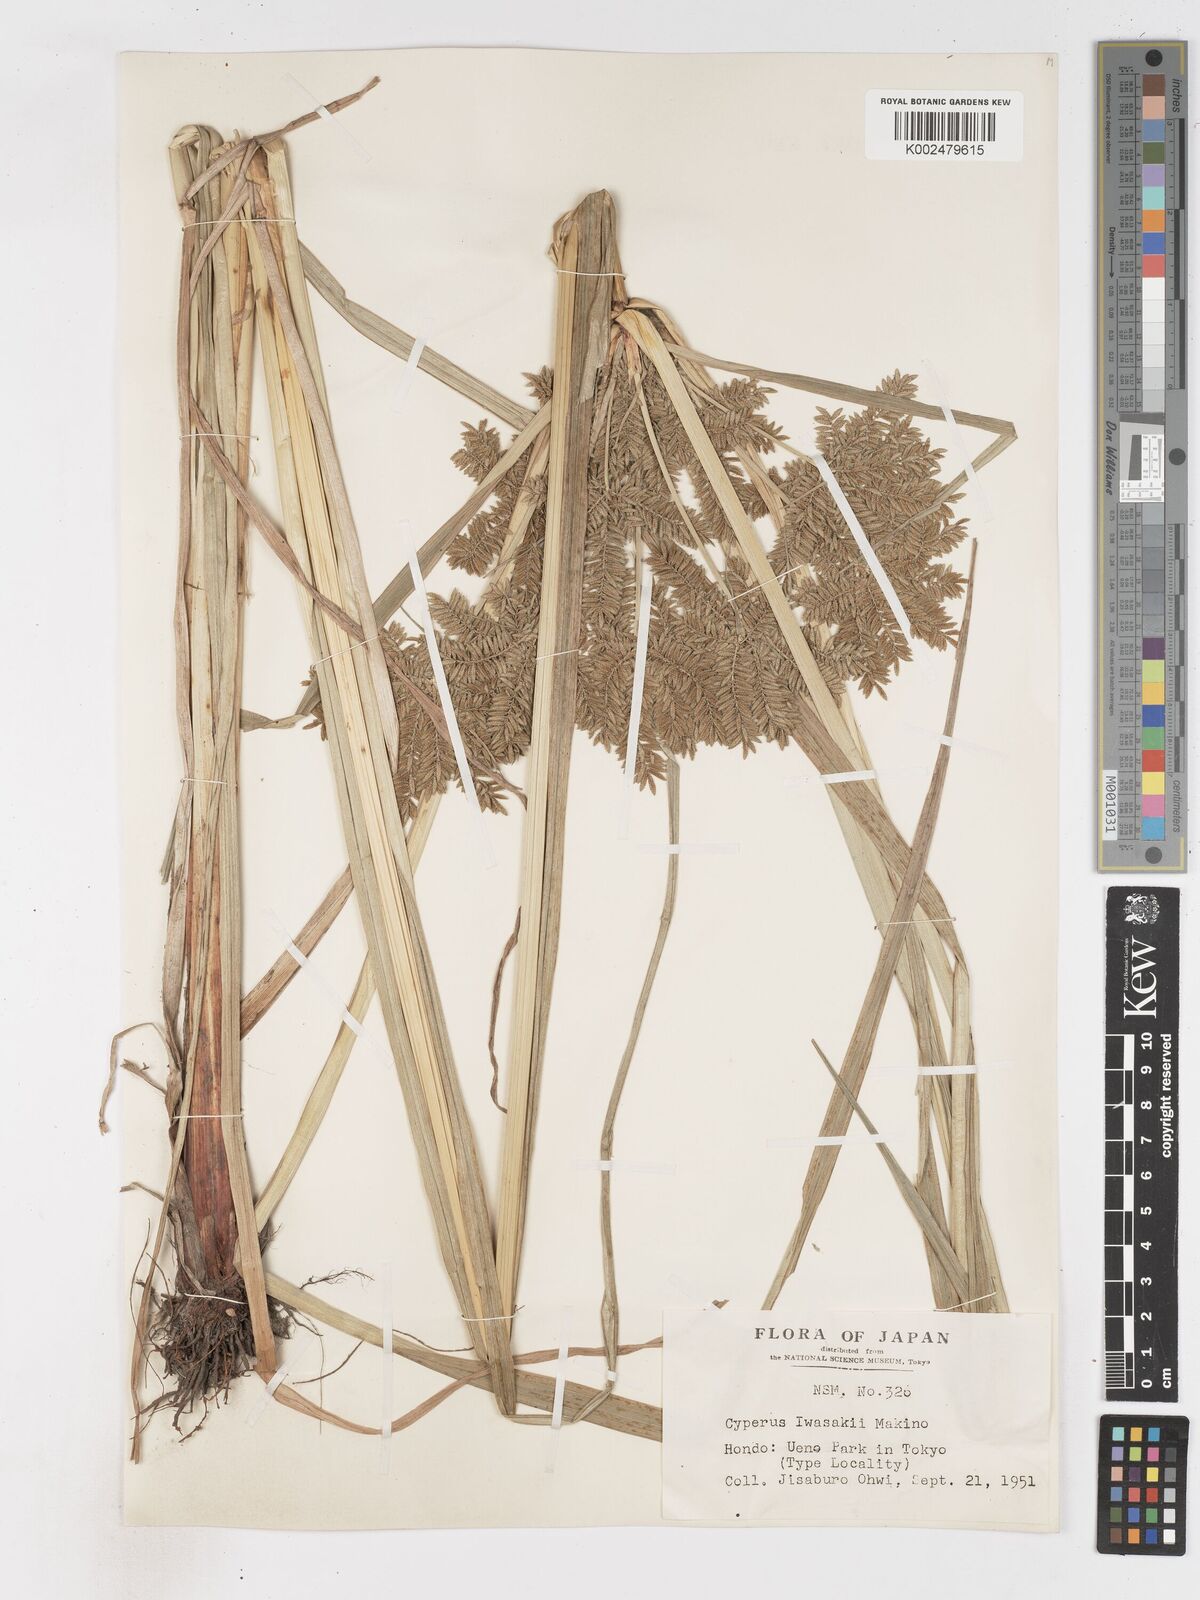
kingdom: Plantae
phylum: Tracheophyta
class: Liliopsida
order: Poales
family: Cyperaceae
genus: Cyperus
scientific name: Cyperus exaltatus
